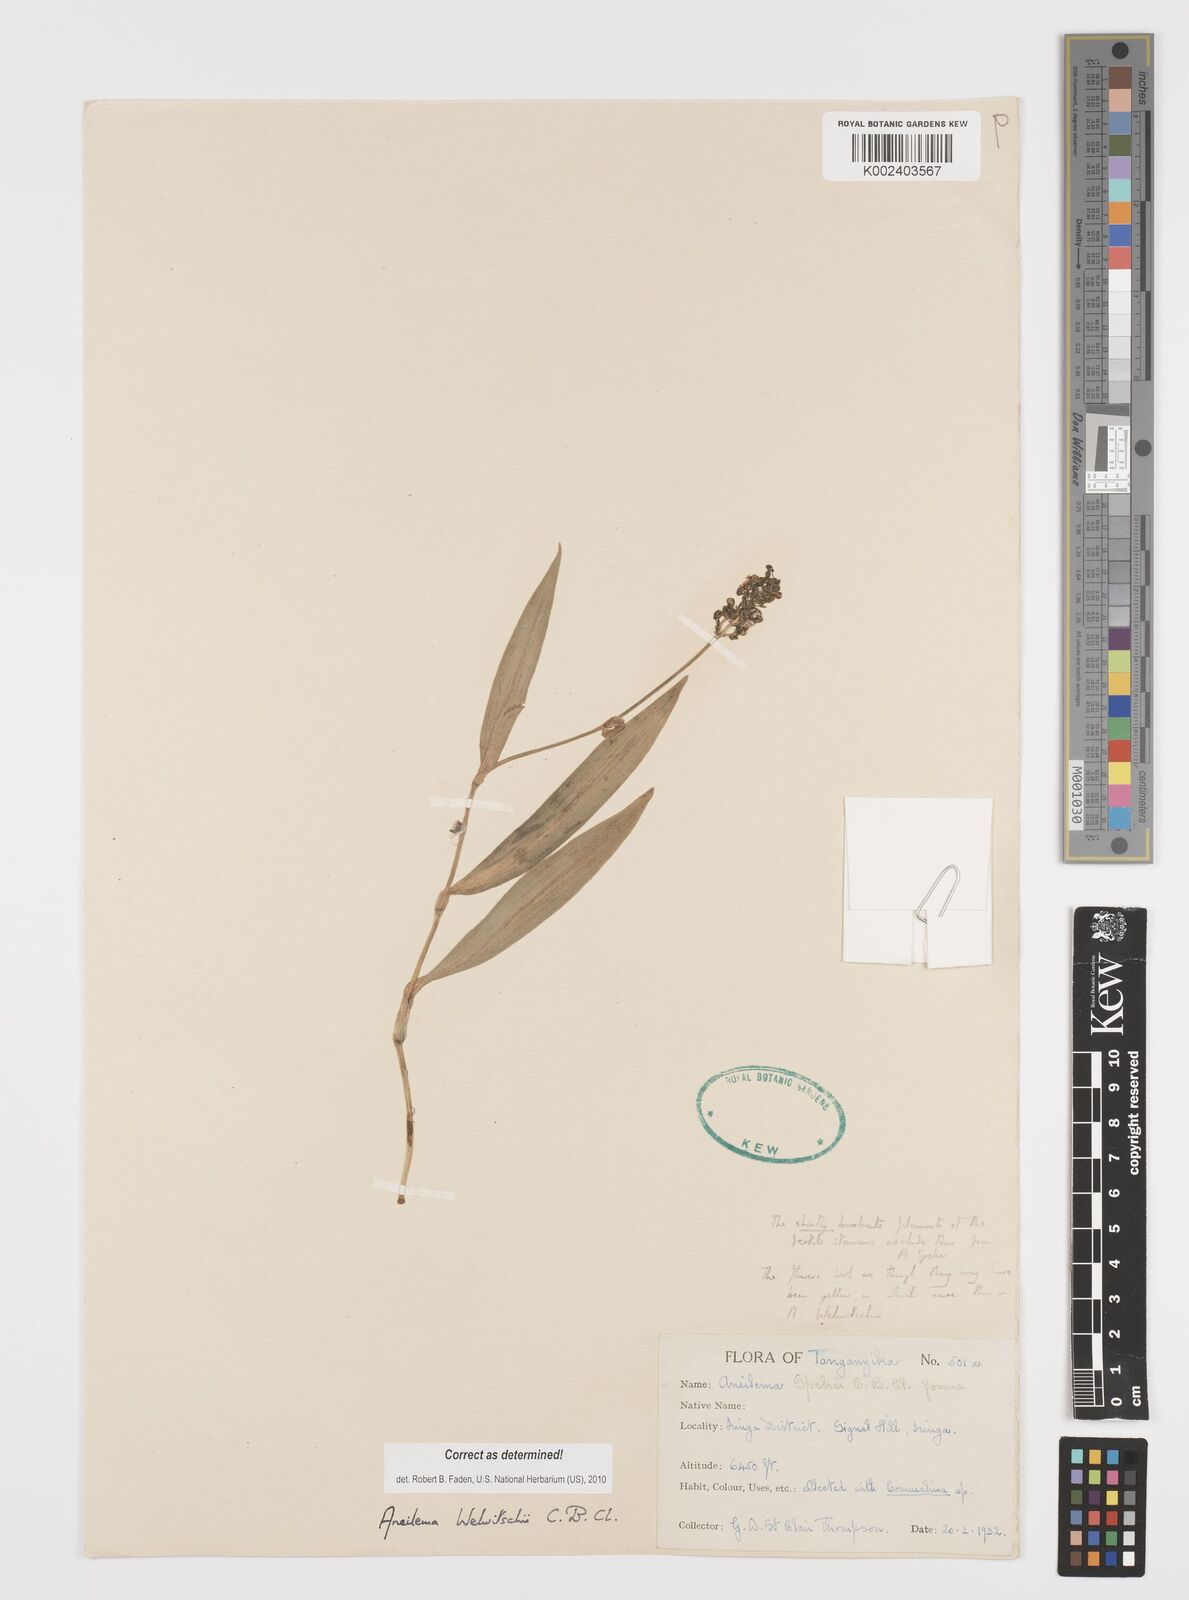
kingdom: Plantae
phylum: Tracheophyta
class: Liliopsida
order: Commelinales
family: Commelinaceae
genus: Aneilema
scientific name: Aneilema welwitschii
